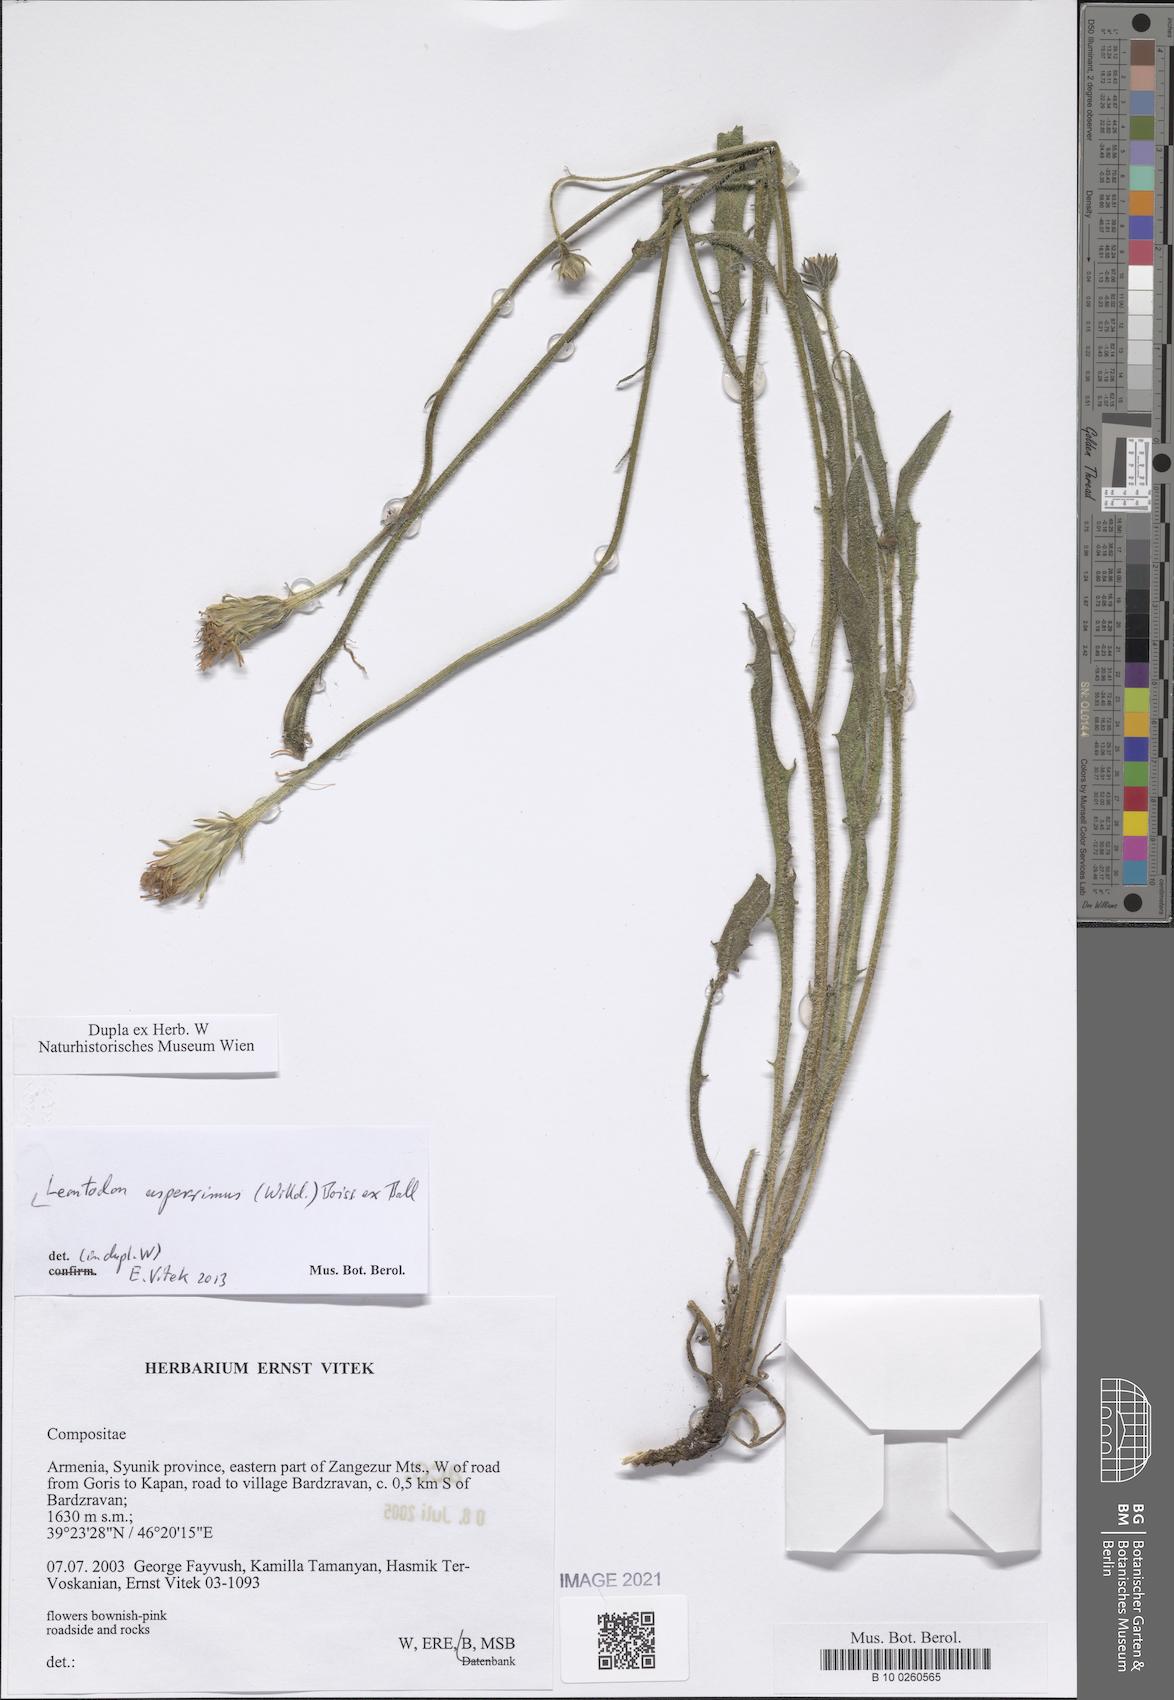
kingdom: Plantae
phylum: Tracheophyta
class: Magnoliopsida
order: Asterales
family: Asteraceae
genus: Leontodon
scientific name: Leontodon asperrimus
